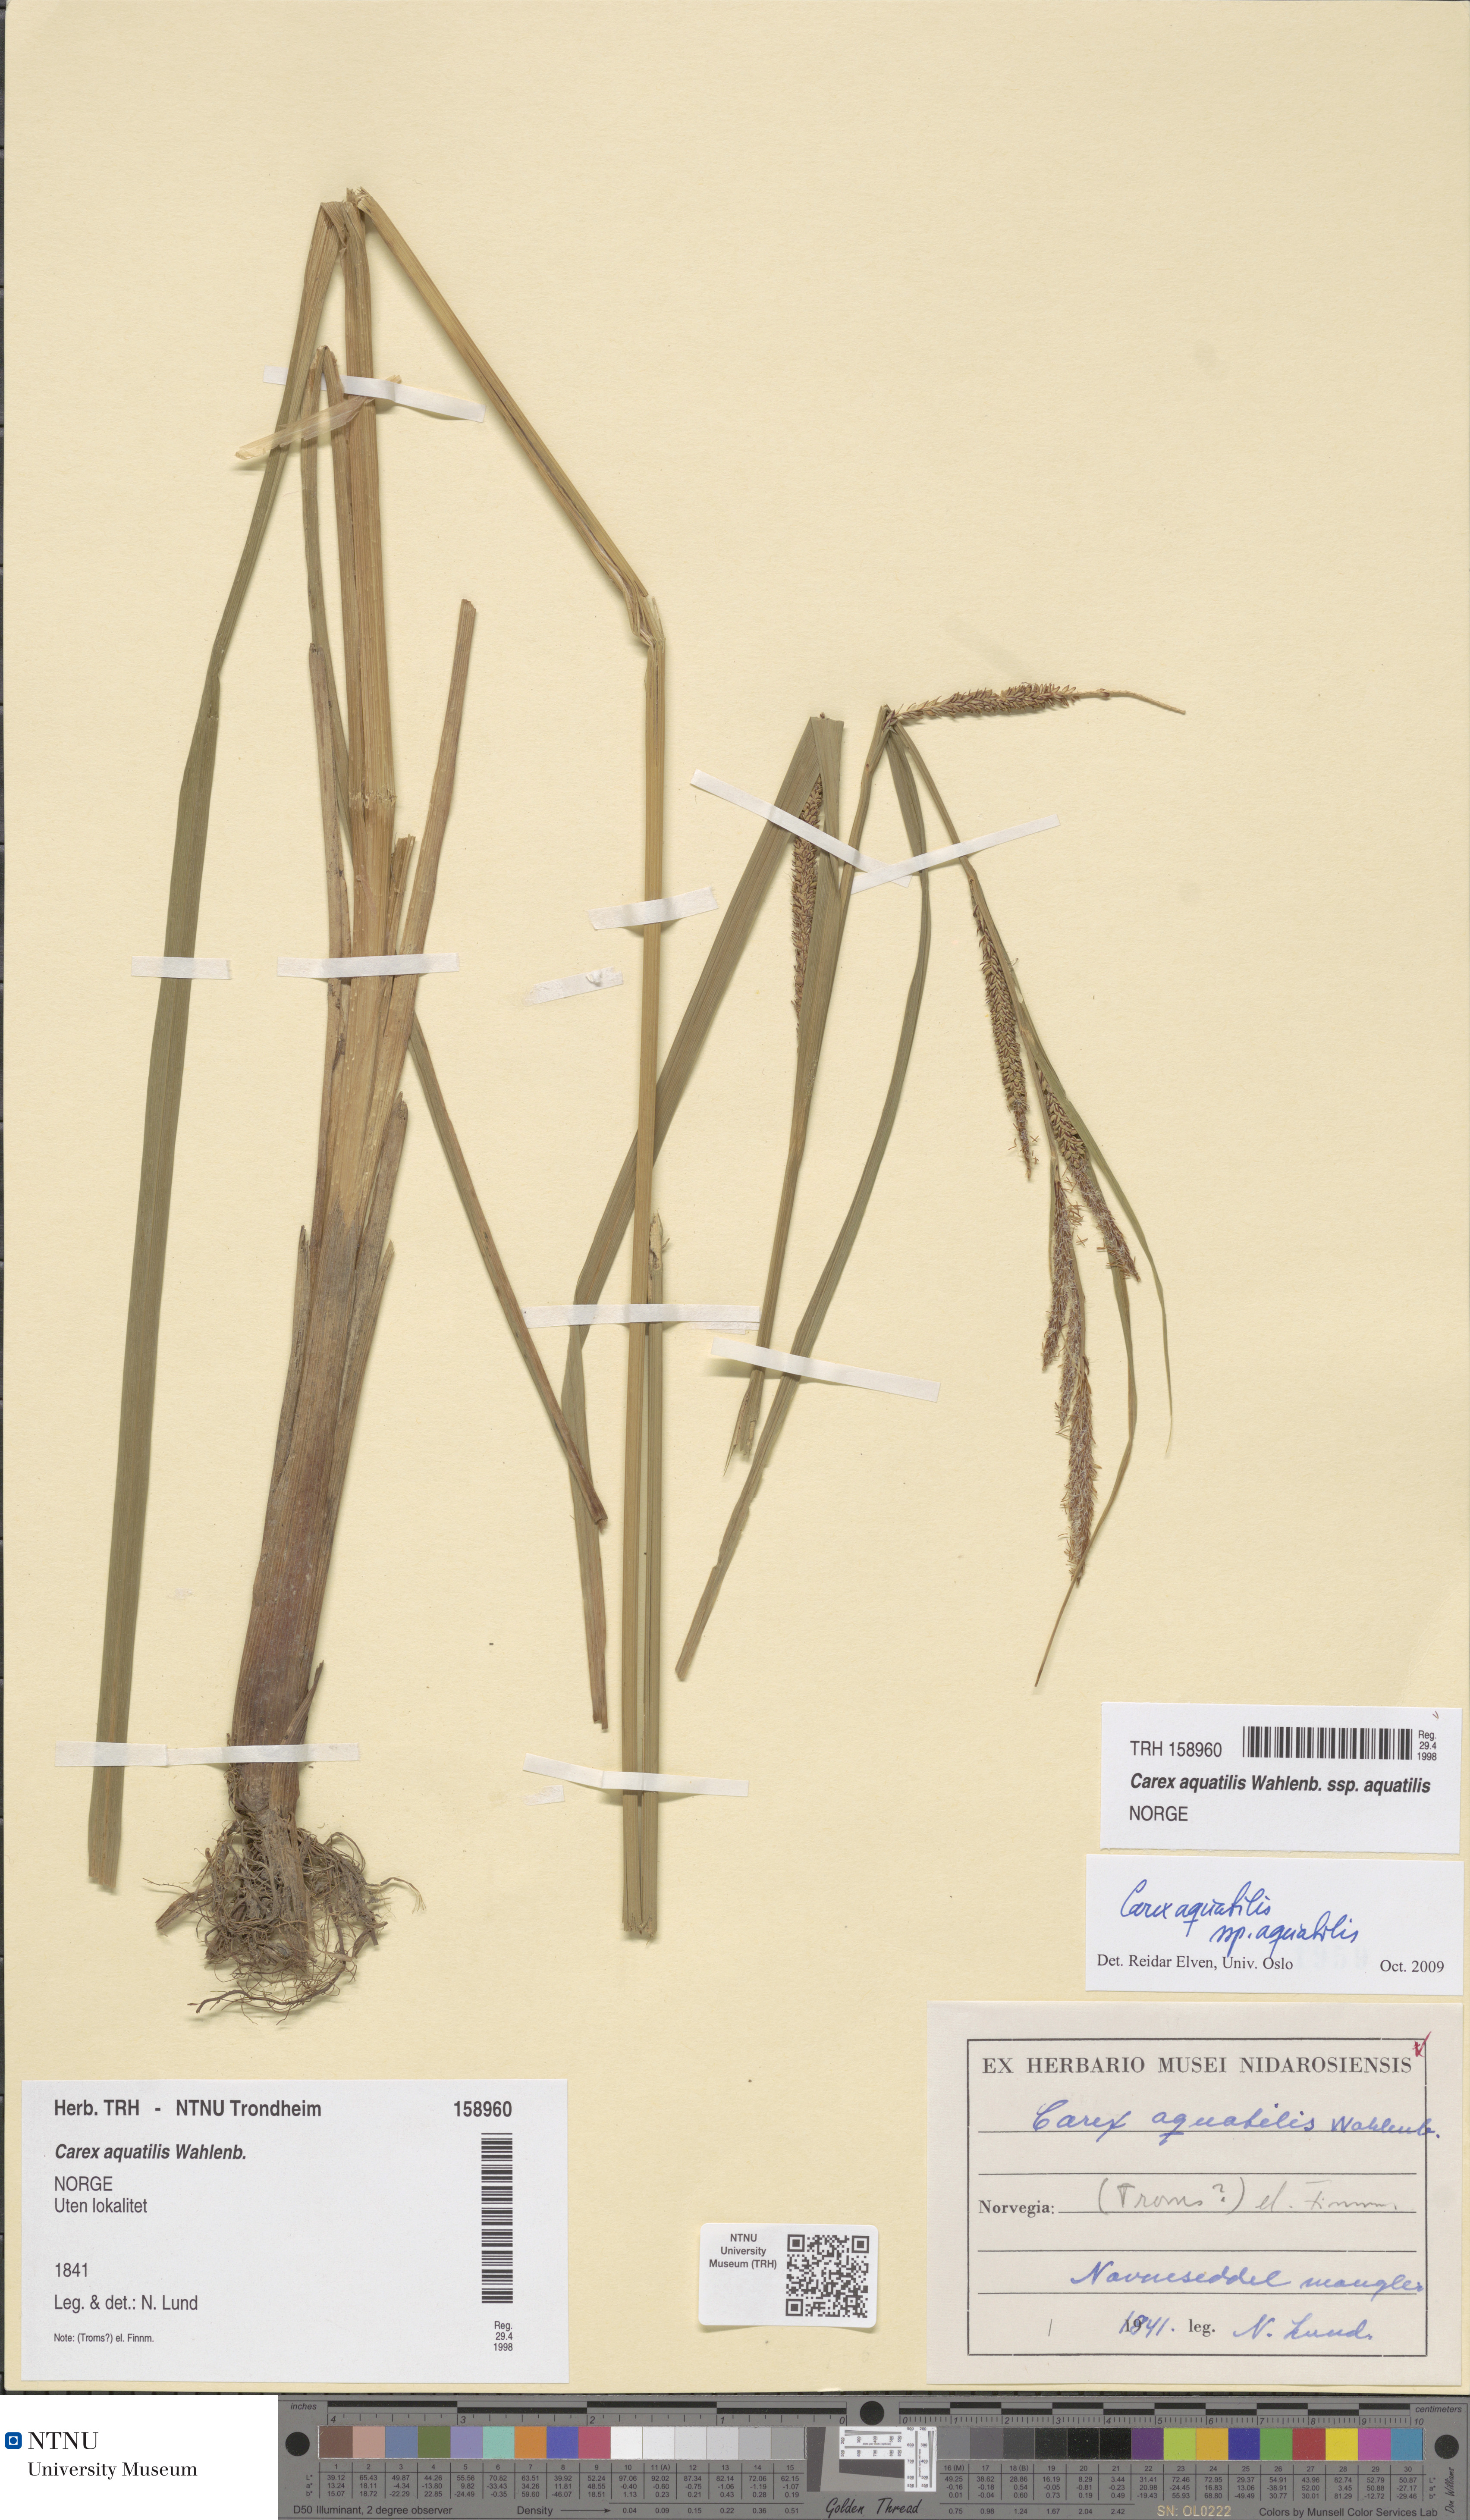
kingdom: Plantae
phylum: Tracheophyta
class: Liliopsida
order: Poales
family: Cyperaceae
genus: Carex
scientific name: Carex aquatilis
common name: Water sedge
